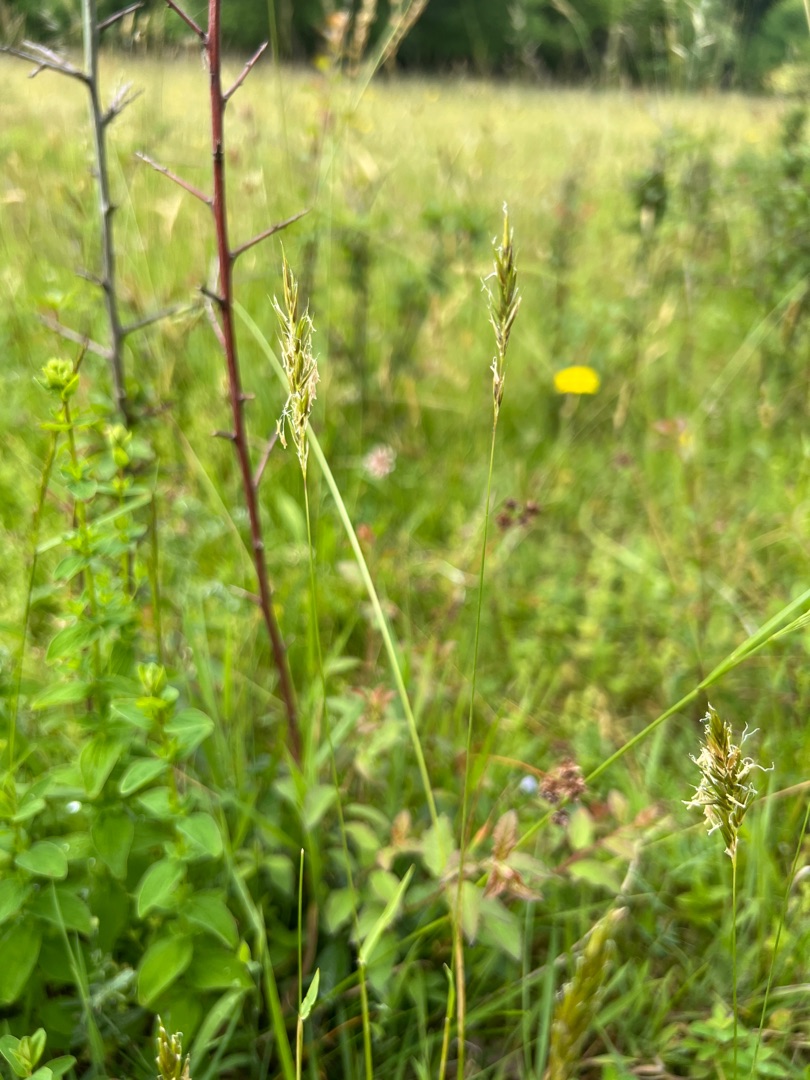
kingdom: Plantae
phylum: Tracheophyta
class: Liliopsida
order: Poales
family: Poaceae
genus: Anthoxanthum
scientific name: Anthoxanthum odoratum
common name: Vellugtende gulaks
